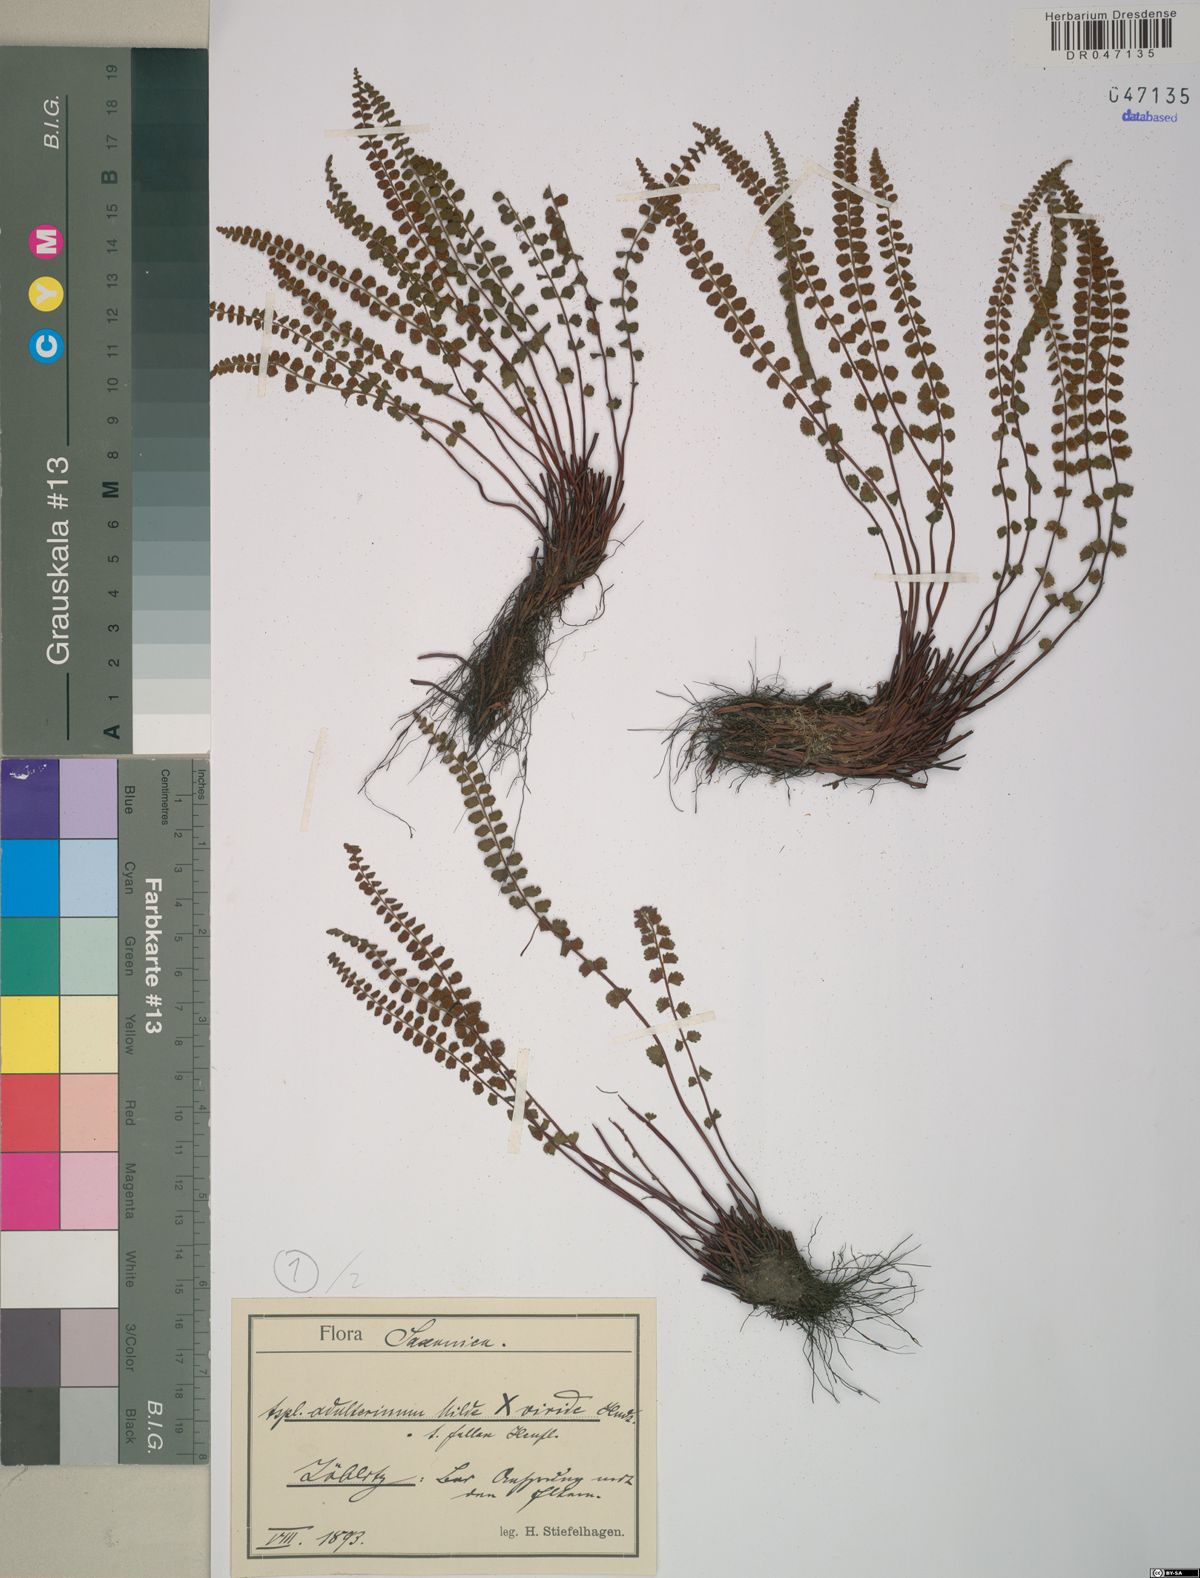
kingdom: Plantae
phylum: Tracheophyta
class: Polypodiopsida
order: Polypodiales
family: Aspleniaceae
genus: Asplenium
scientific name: Asplenium adulterinum
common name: Adulterated spleenwort
